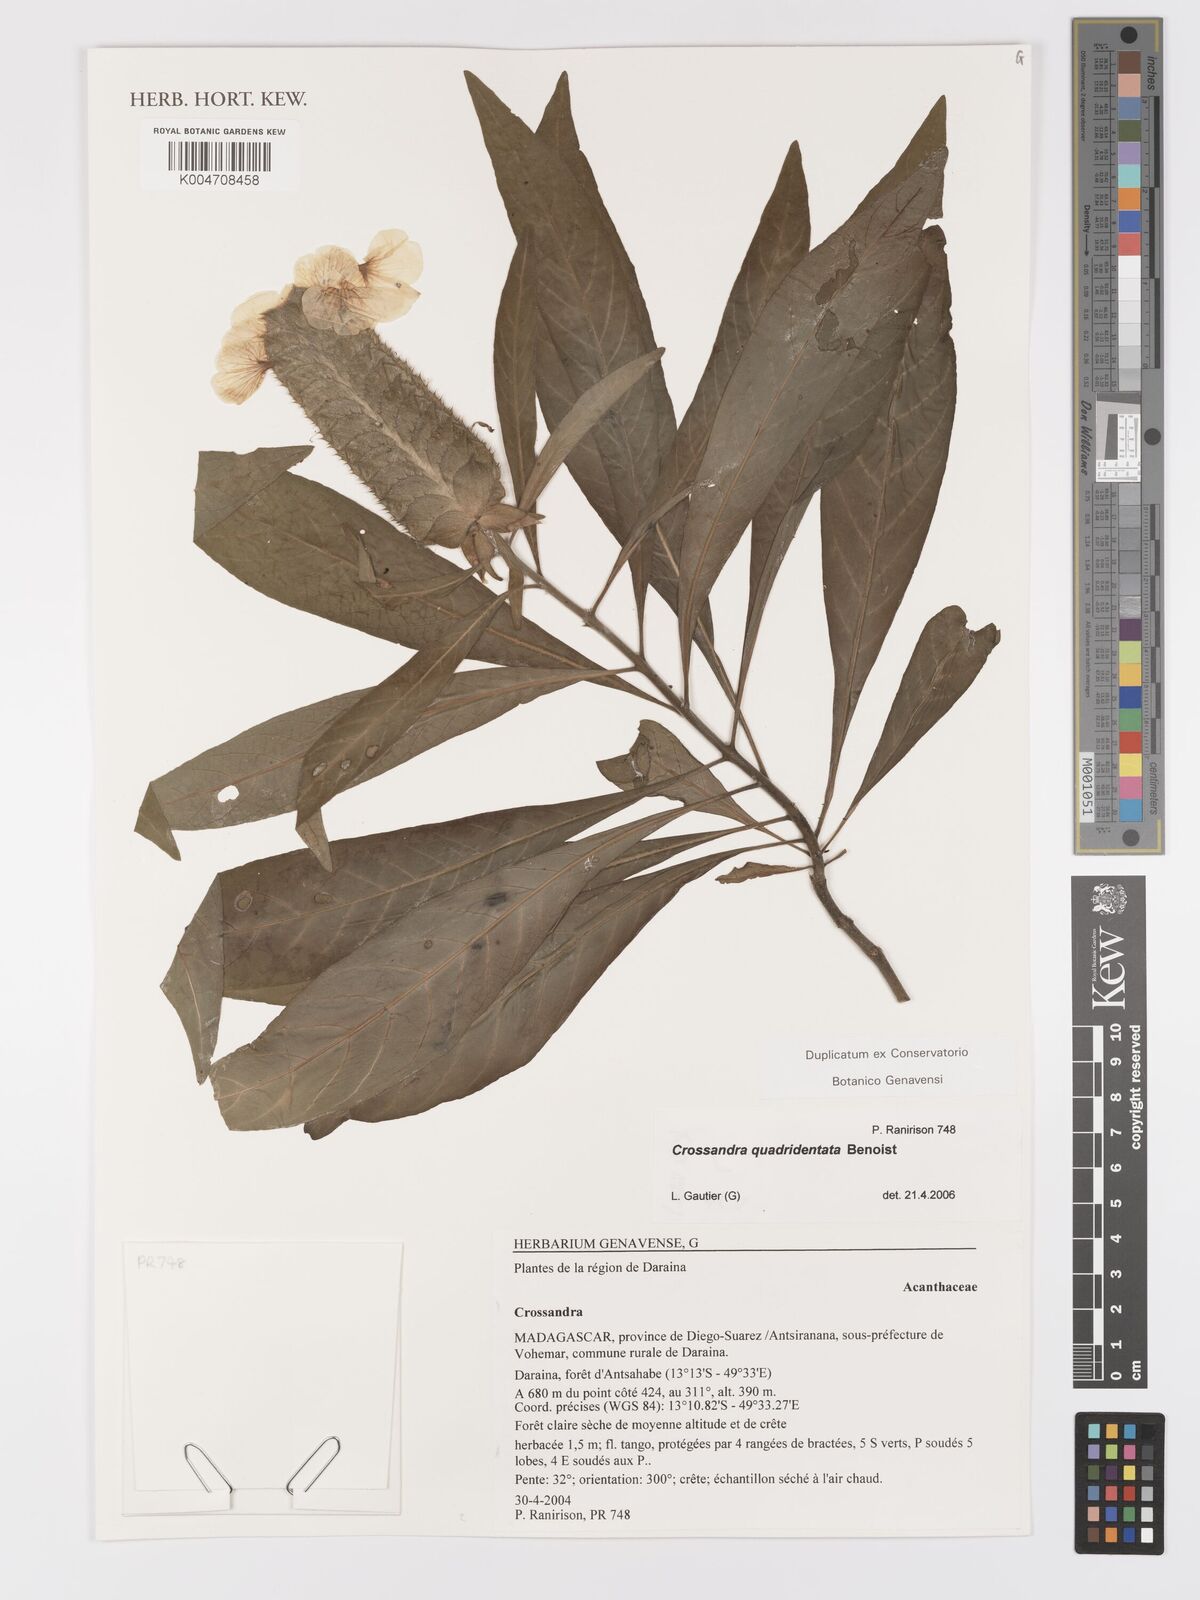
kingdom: Plantae
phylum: Tracheophyta
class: Magnoliopsida
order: Lamiales
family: Acanthaceae
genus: Crossandra
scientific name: Crossandra quadridentata
